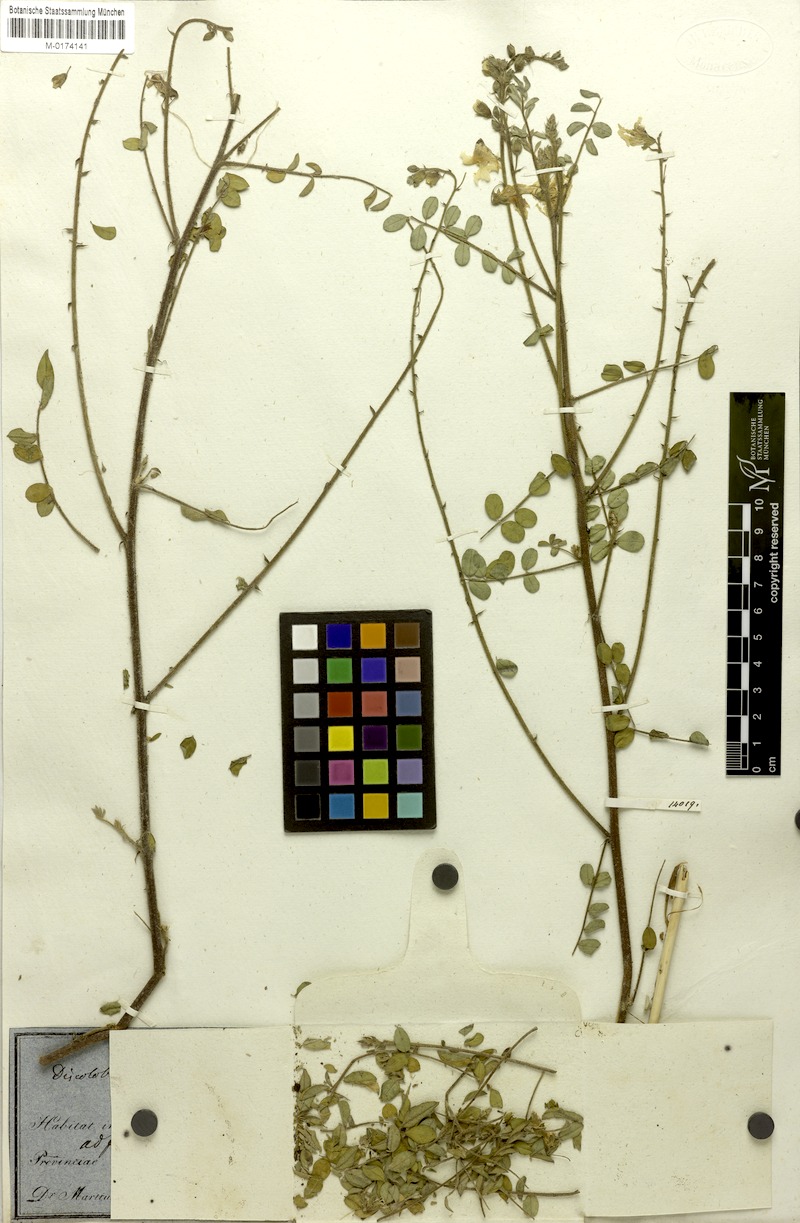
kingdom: Plantae
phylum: Tracheophyta
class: Magnoliopsida
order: Fabales
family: Fabaceae
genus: Discolobium
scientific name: Discolobium hirtum
